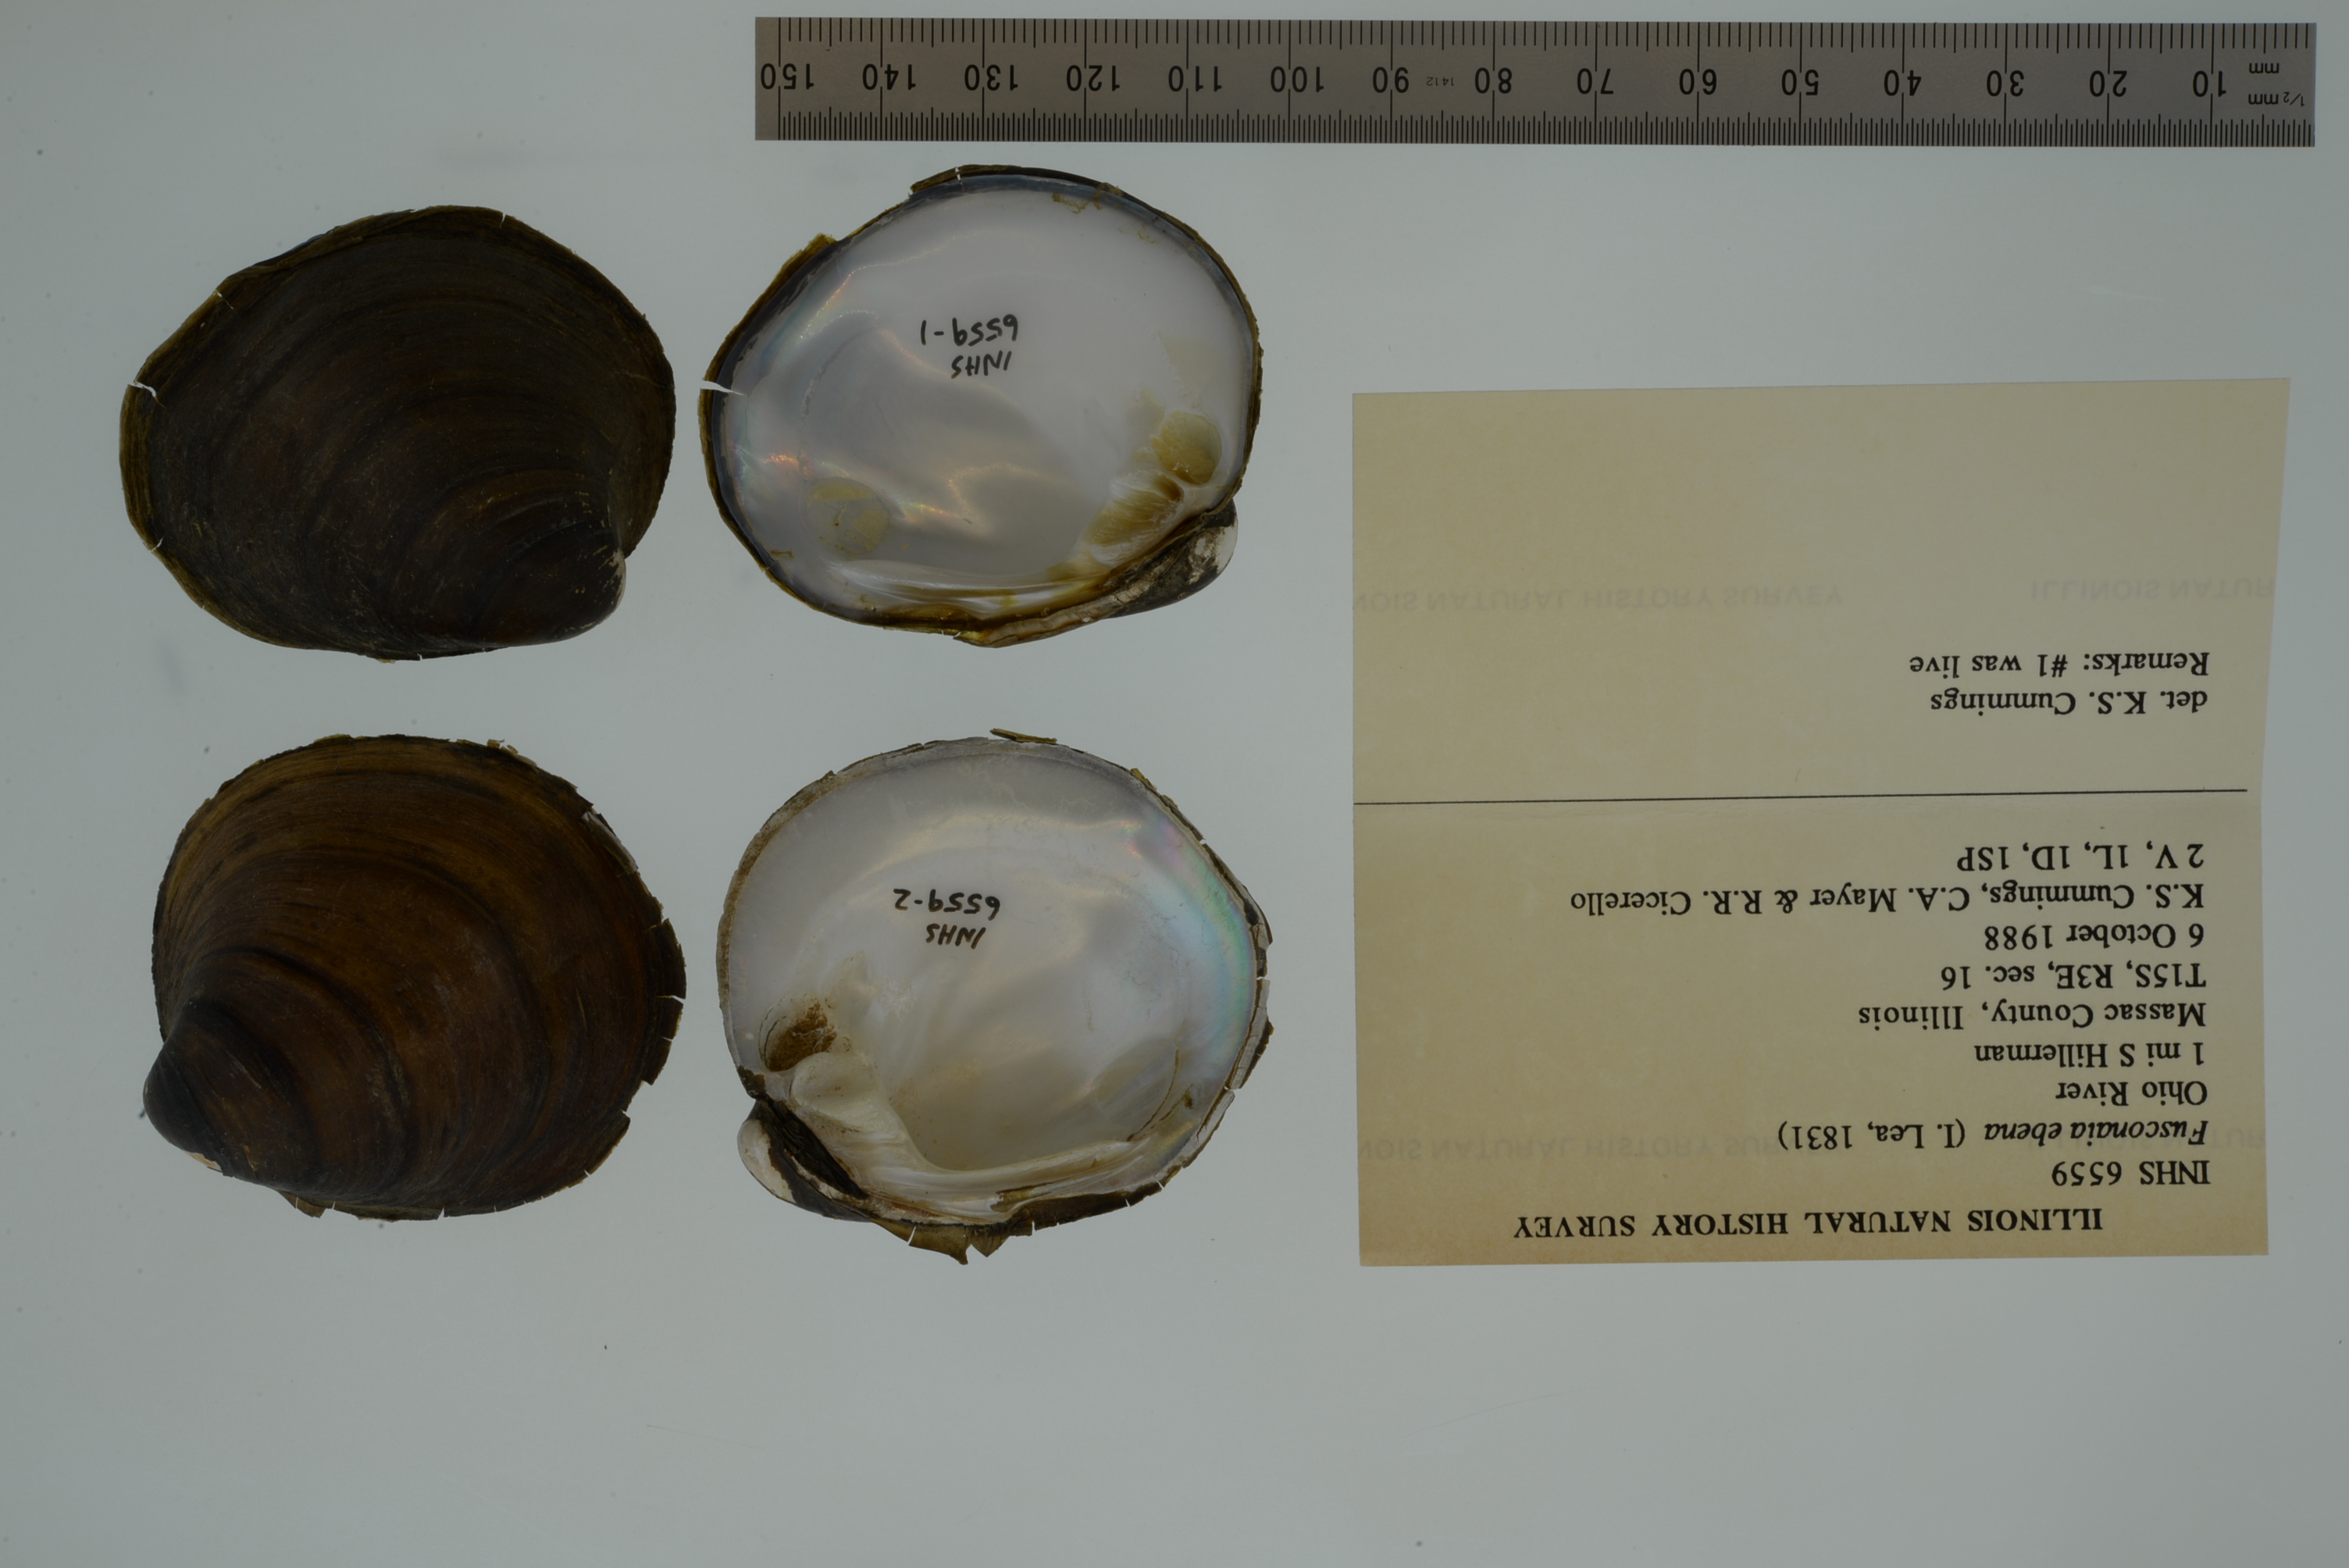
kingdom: Animalia
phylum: Mollusca
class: Bivalvia
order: Unionida
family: Unionidae
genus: Reginaia
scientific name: Reginaia ebenus
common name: Ebonyshell
